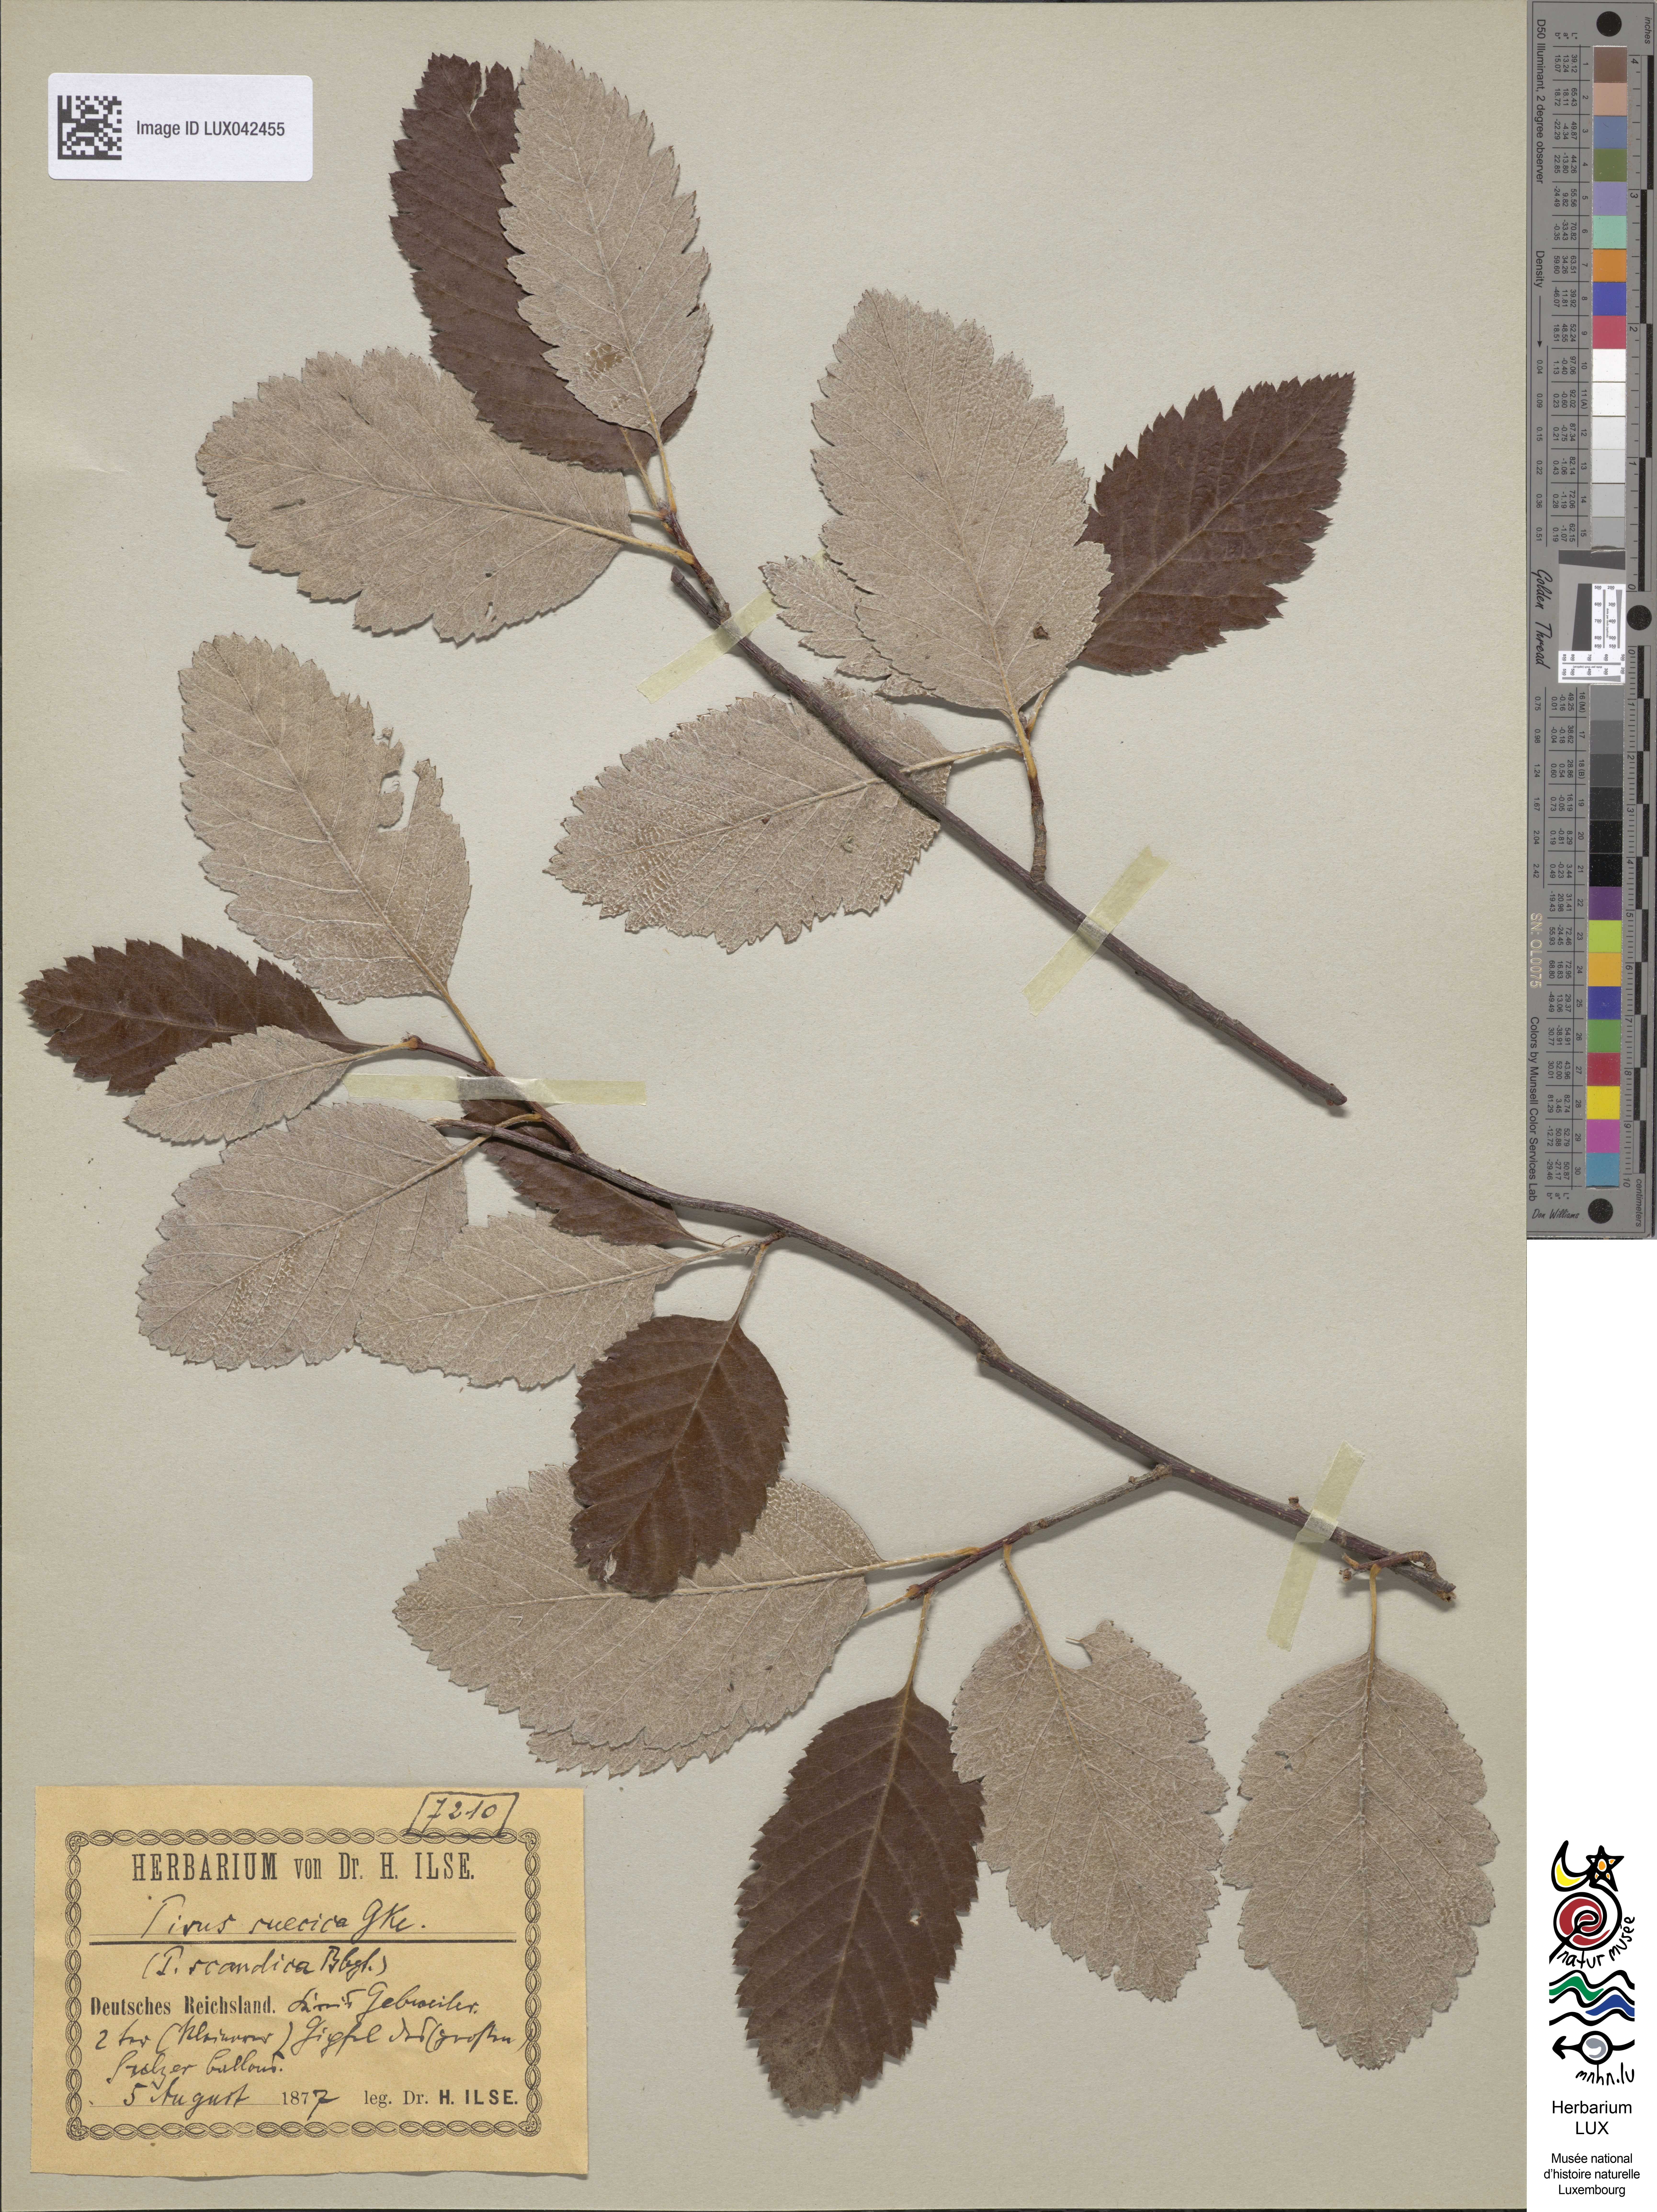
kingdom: Plantae
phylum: Tracheophyta
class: Magnoliopsida
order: Rosales
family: Rosaceae
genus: Scandosorbus
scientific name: Scandosorbus intermedia
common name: Swedish whitebeam
